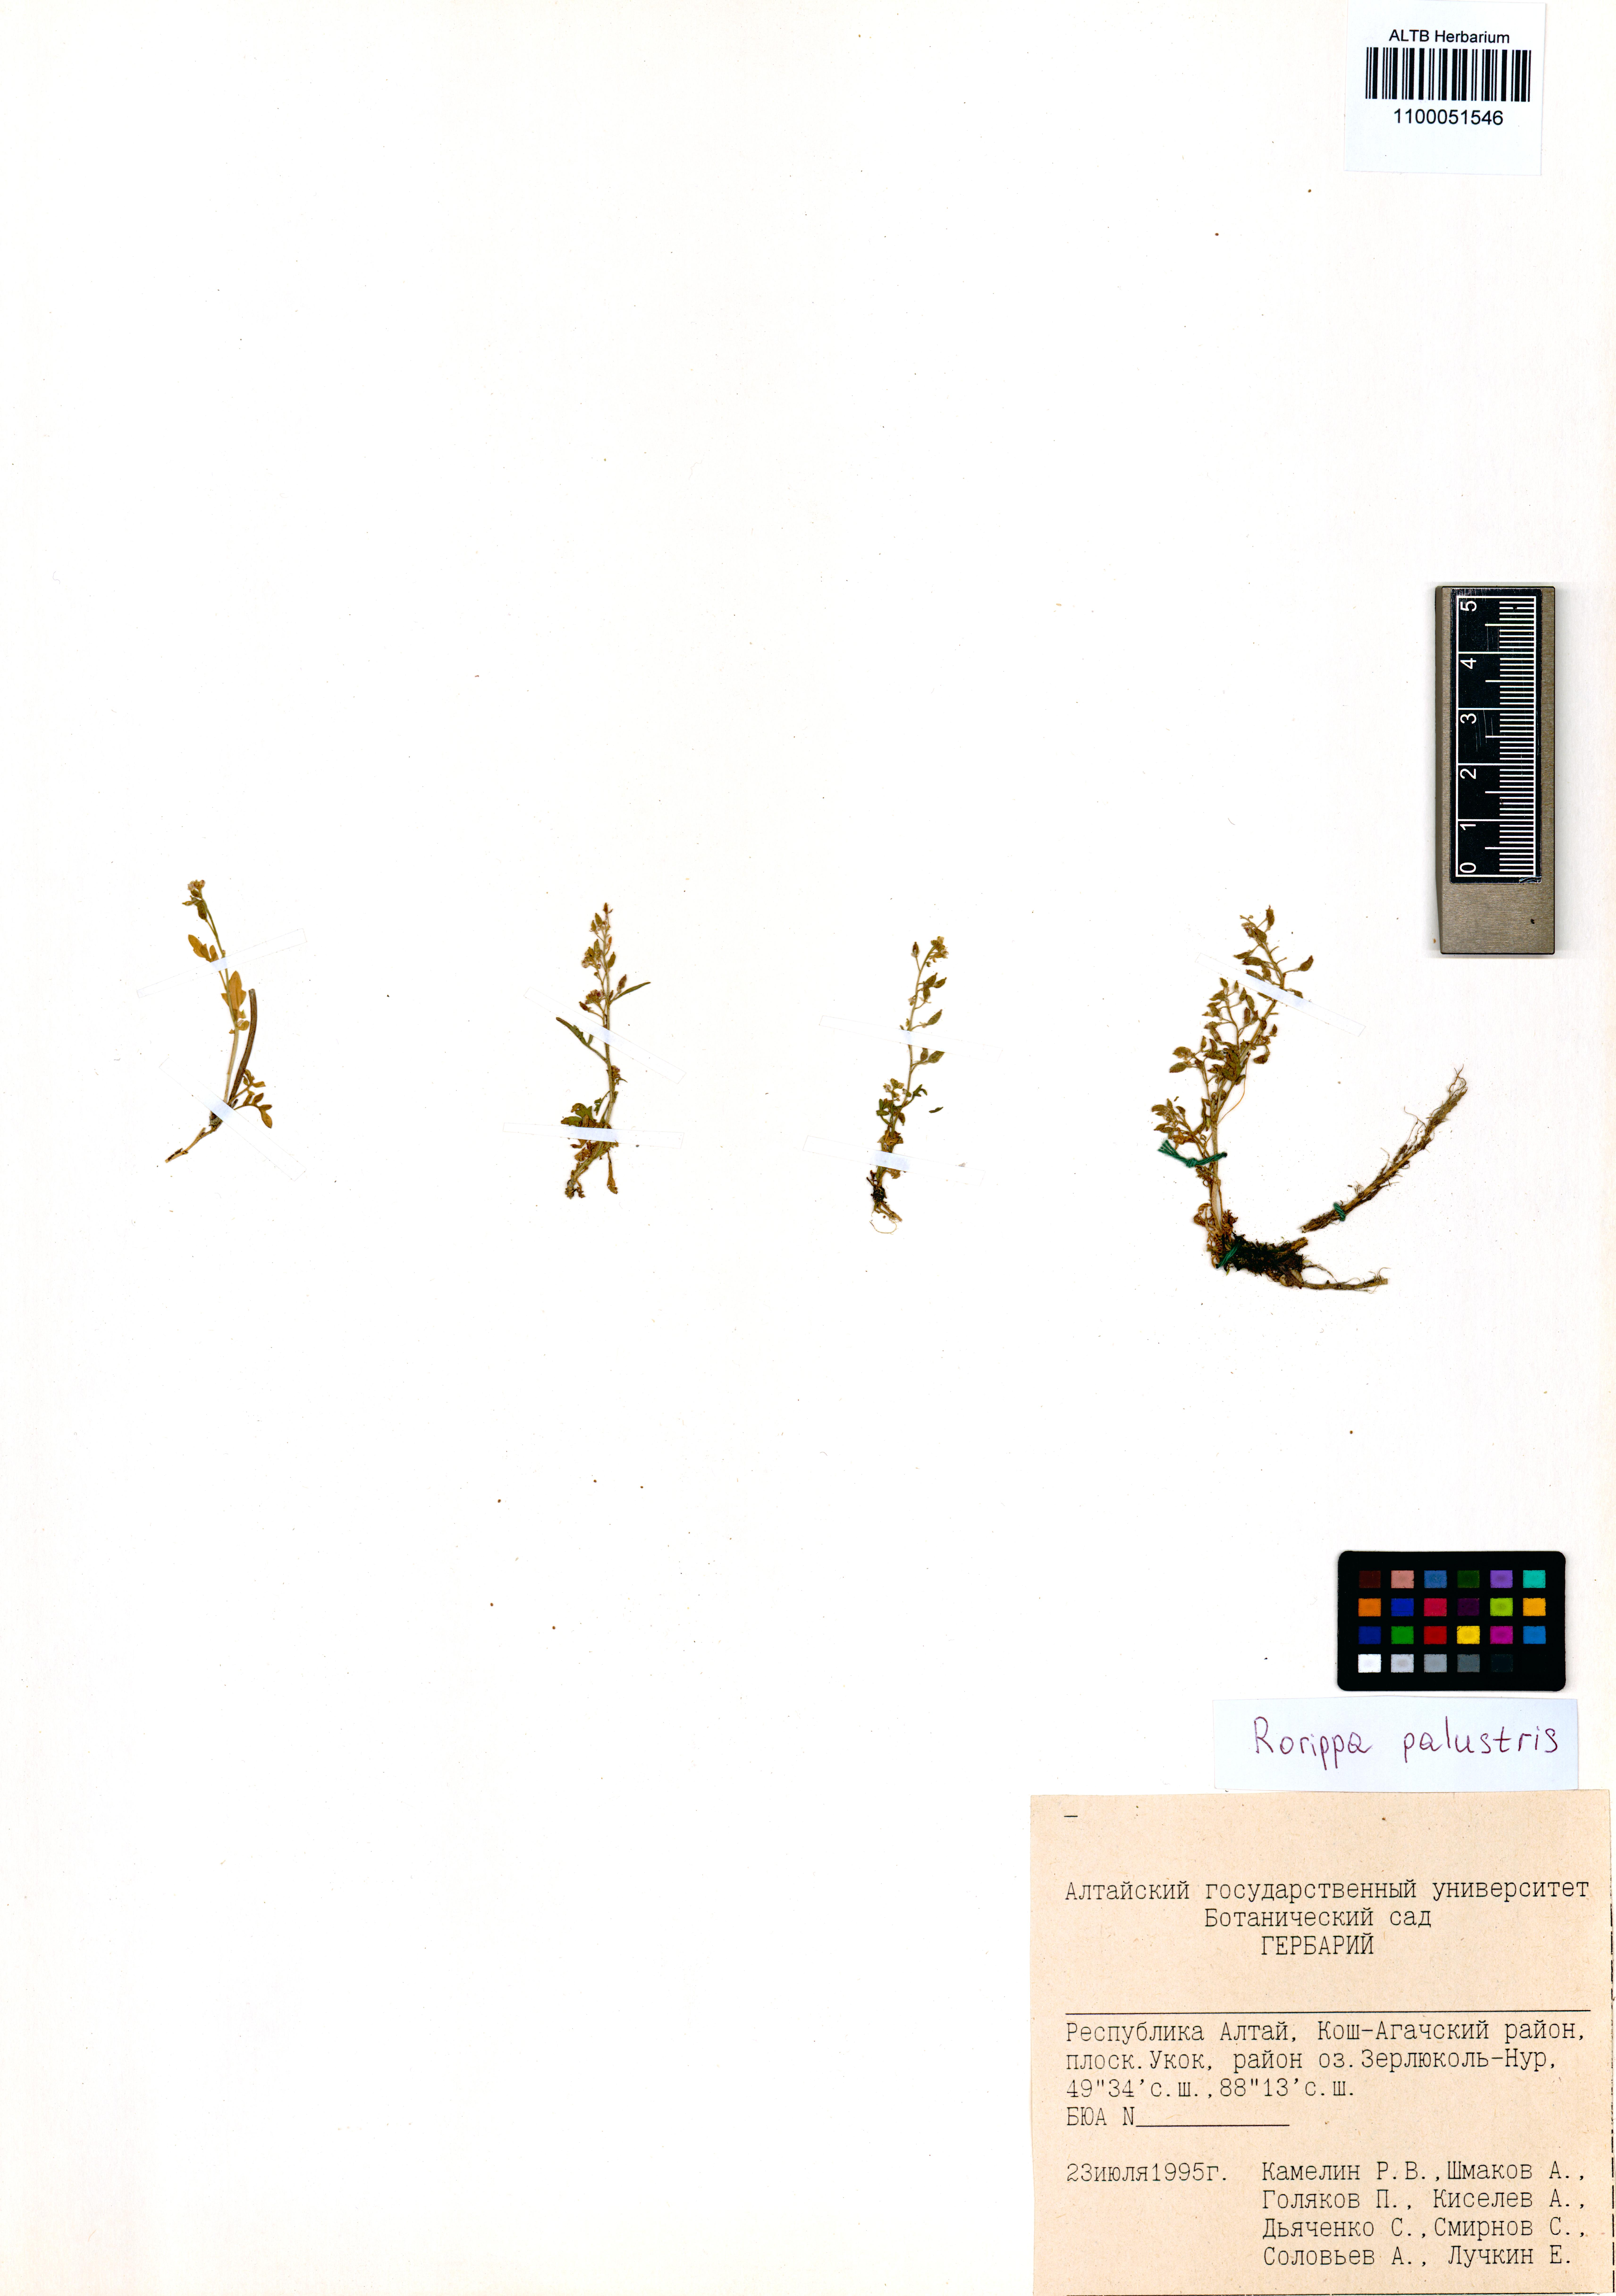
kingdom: Plantae
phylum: Tracheophyta
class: Magnoliopsida
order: Brassicales
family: Brassicaceae
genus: Rorippa
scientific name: Rorippa palustris
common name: Marsh yellow-cress
